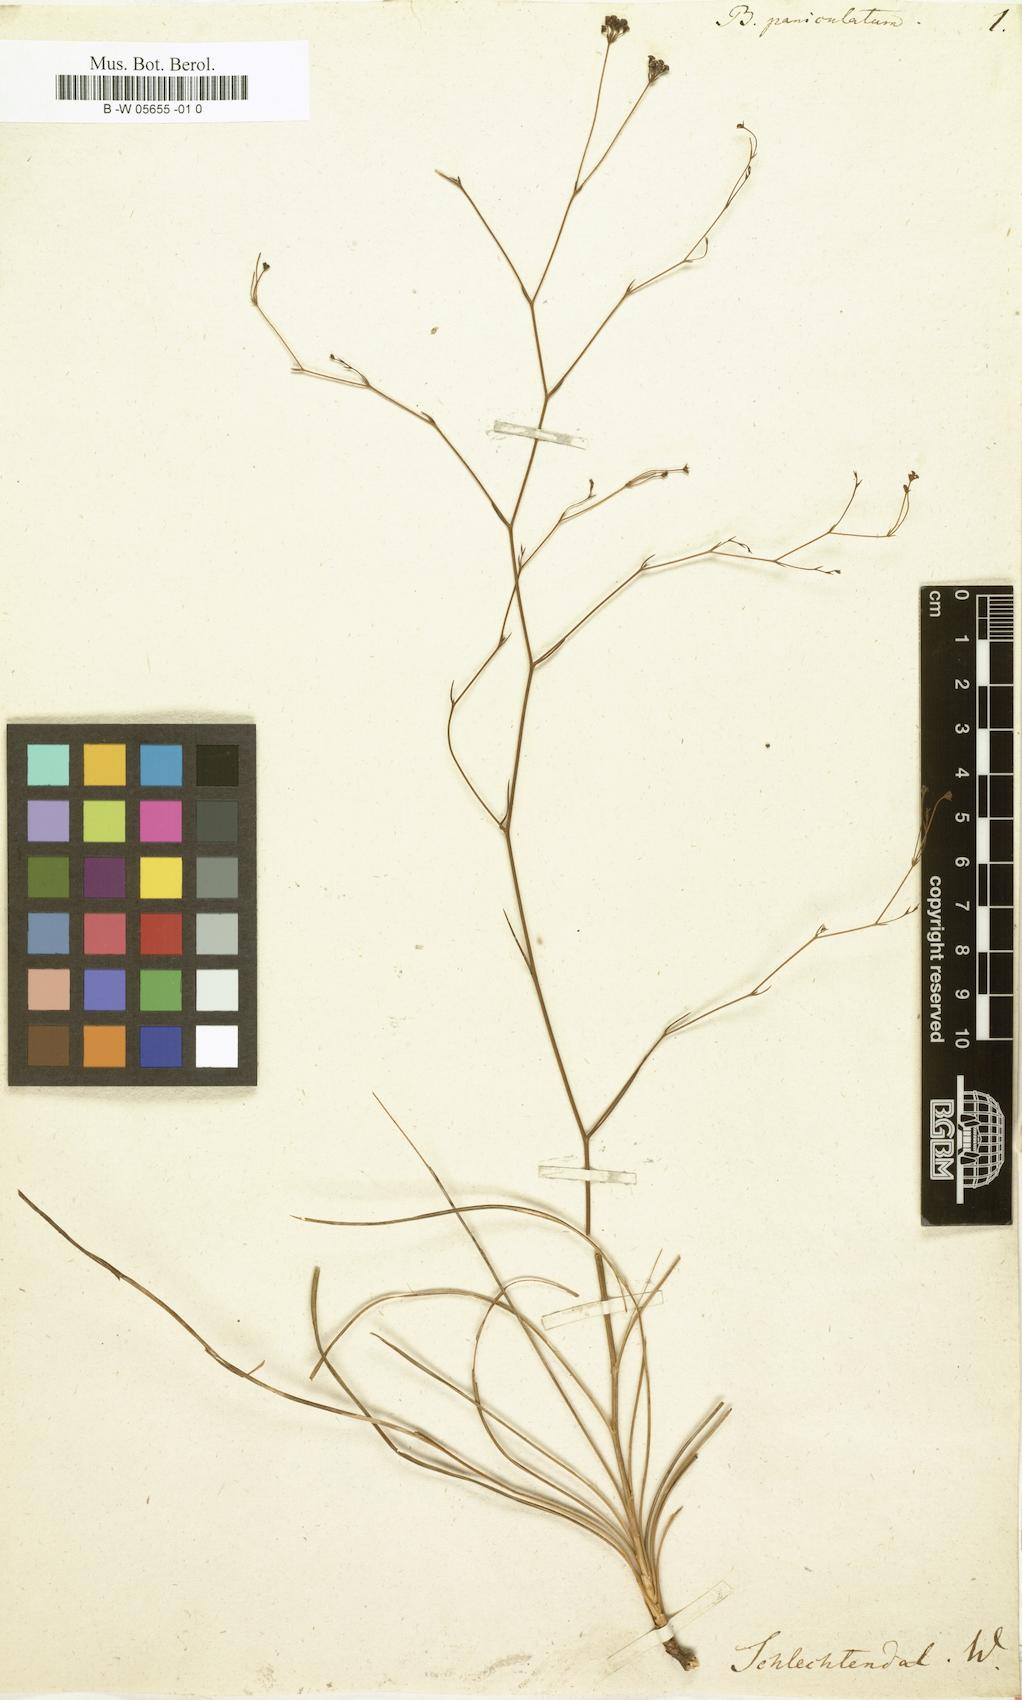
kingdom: Plantae
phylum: Tracheophyta
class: Magnoliopsida
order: Apiales
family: Apiaceae
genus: Bupleurum
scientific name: Bupleurum
